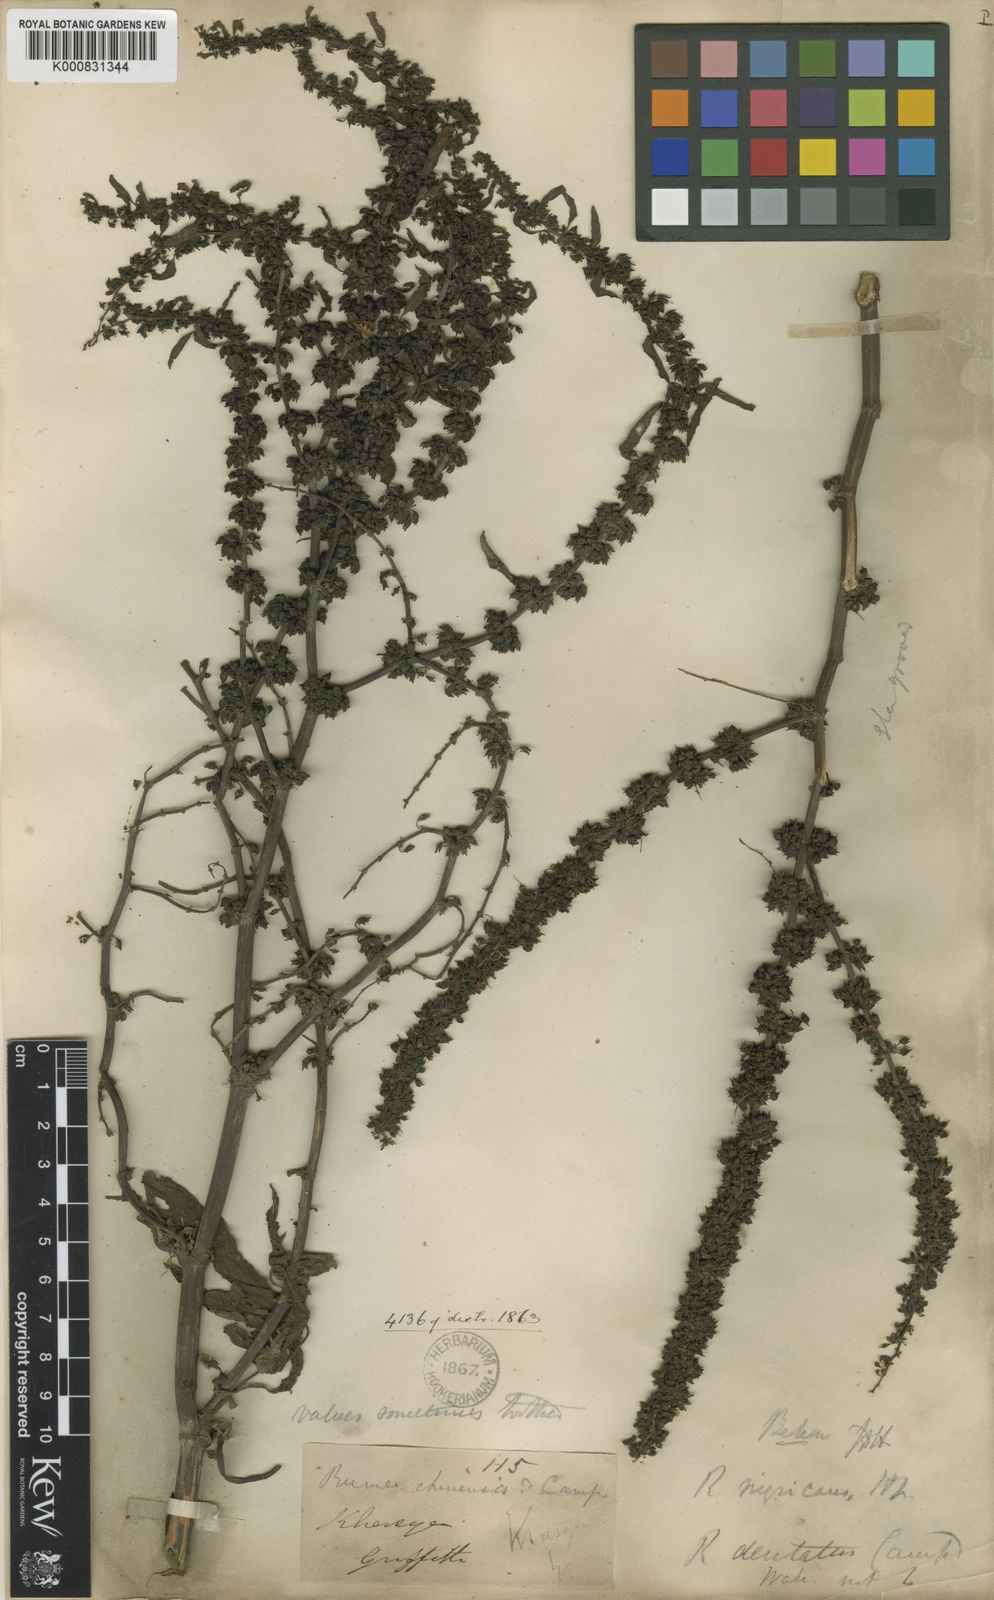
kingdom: Plantae
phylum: Tracheophyta
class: Magnoliopsida
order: Caryophyllales
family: Polygonaceae
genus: Rumex
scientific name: Rumex dentatus
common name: Toothed dock
